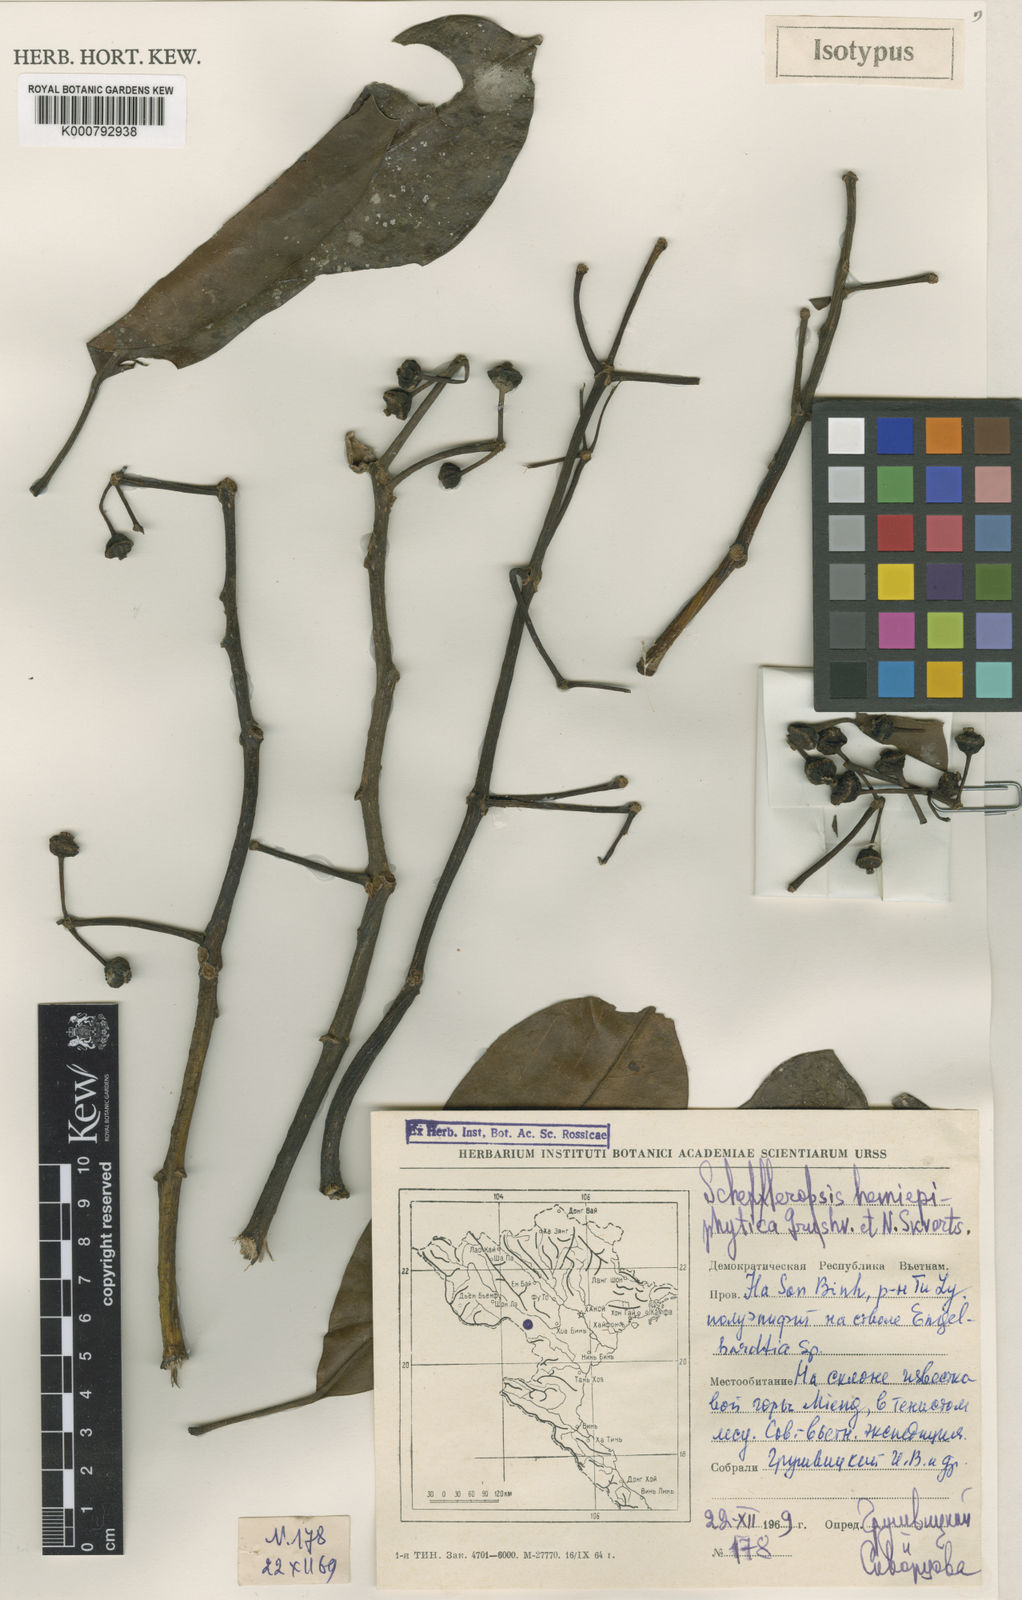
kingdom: Plantae
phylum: Tracheophyta
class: Magnoliopsida
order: Apiales
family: Araliaceae
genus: Heptapleurum
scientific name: Heptapleurum hemiepiphyticum
